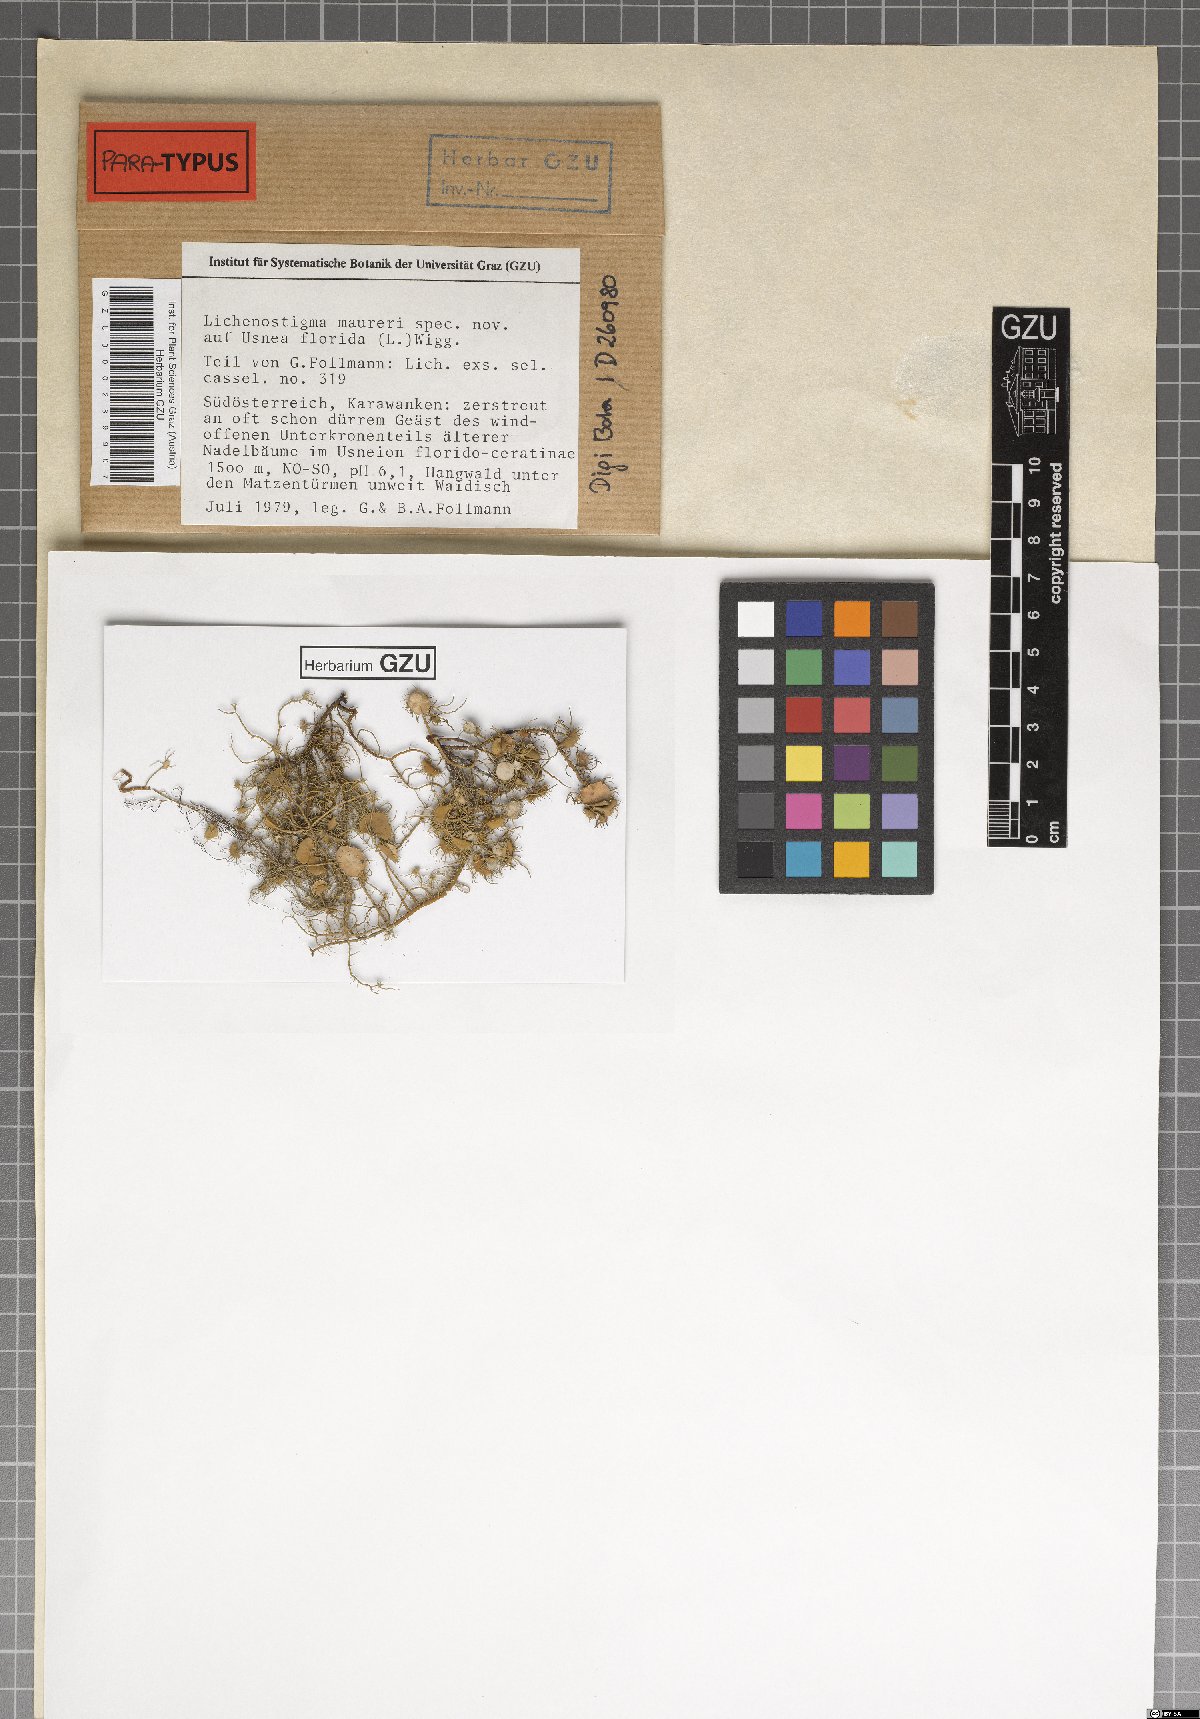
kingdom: Fungi
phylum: Ascomycota
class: Arthoniomycetes
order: Lichenostigmatales
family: Phaeococcomycetaceae
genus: Lichenostigma
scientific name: Lichenostigma maureri
